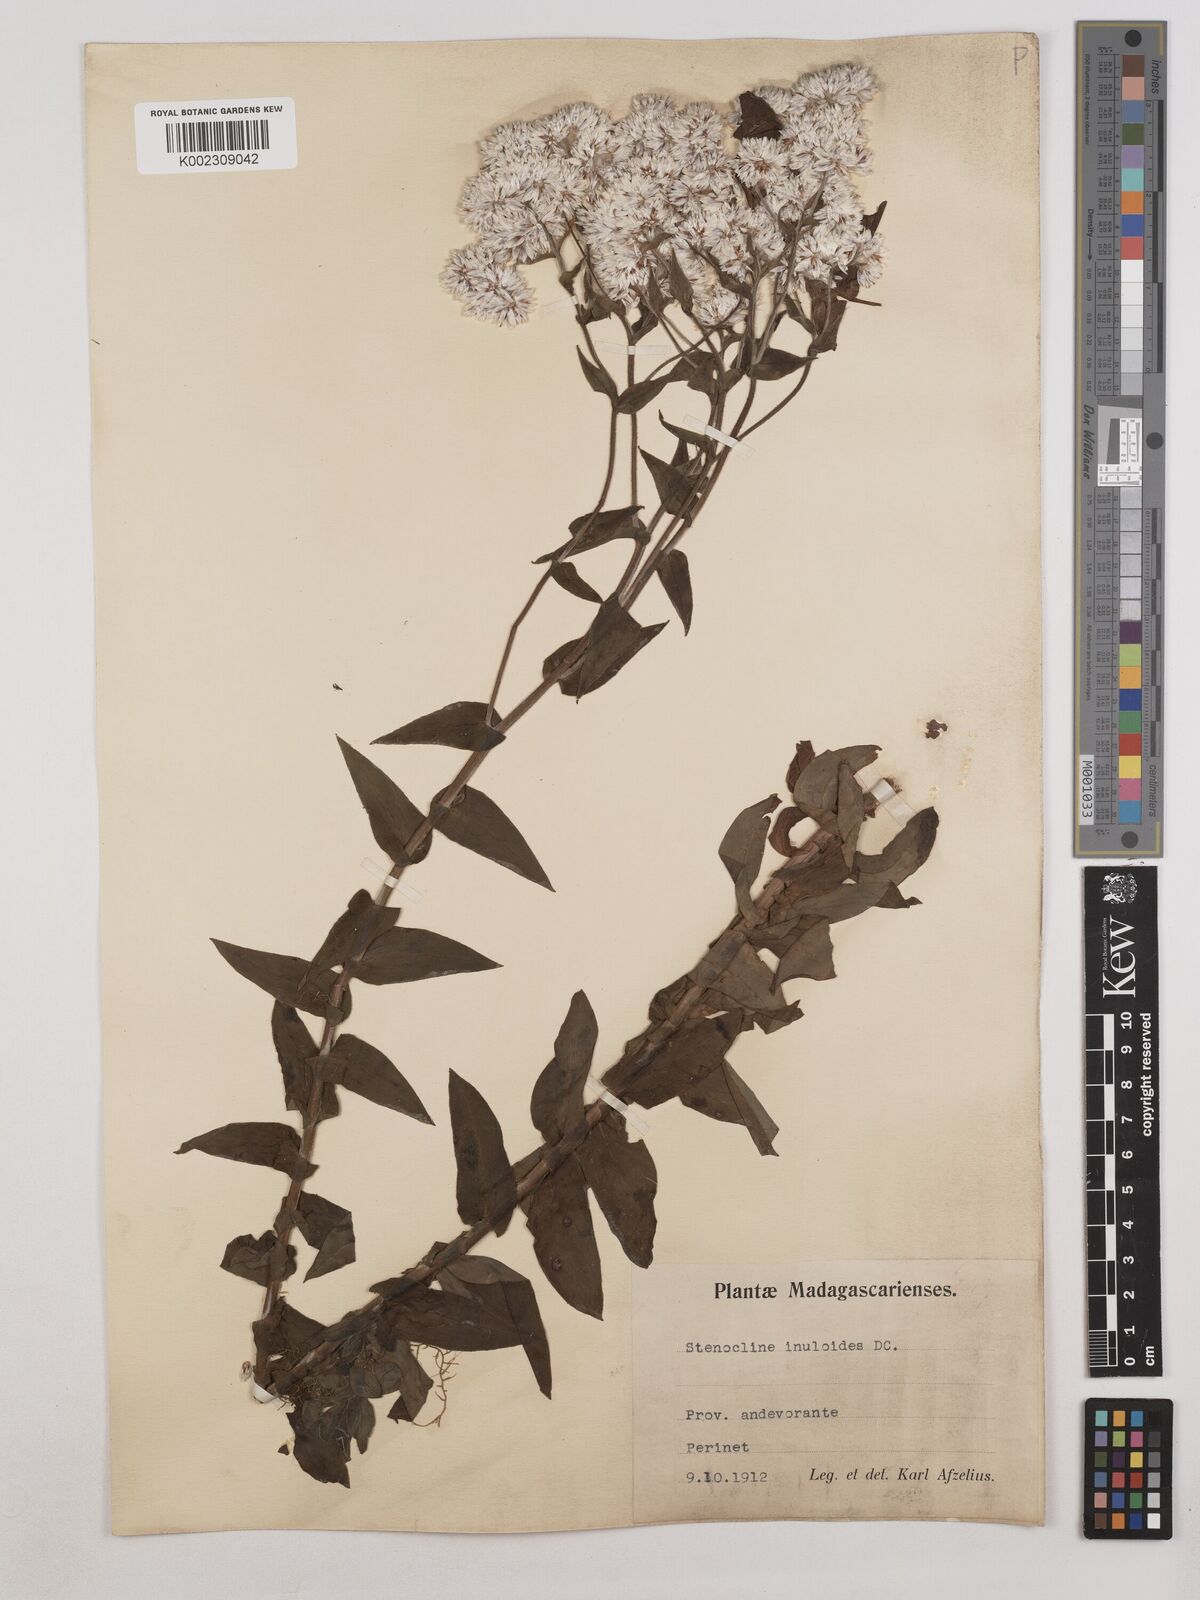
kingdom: Plantae
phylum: Tracheophyta
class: Magnoliopsida
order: Asterales
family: Asteraceae
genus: Stenocline
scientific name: Stenocline inuloides
